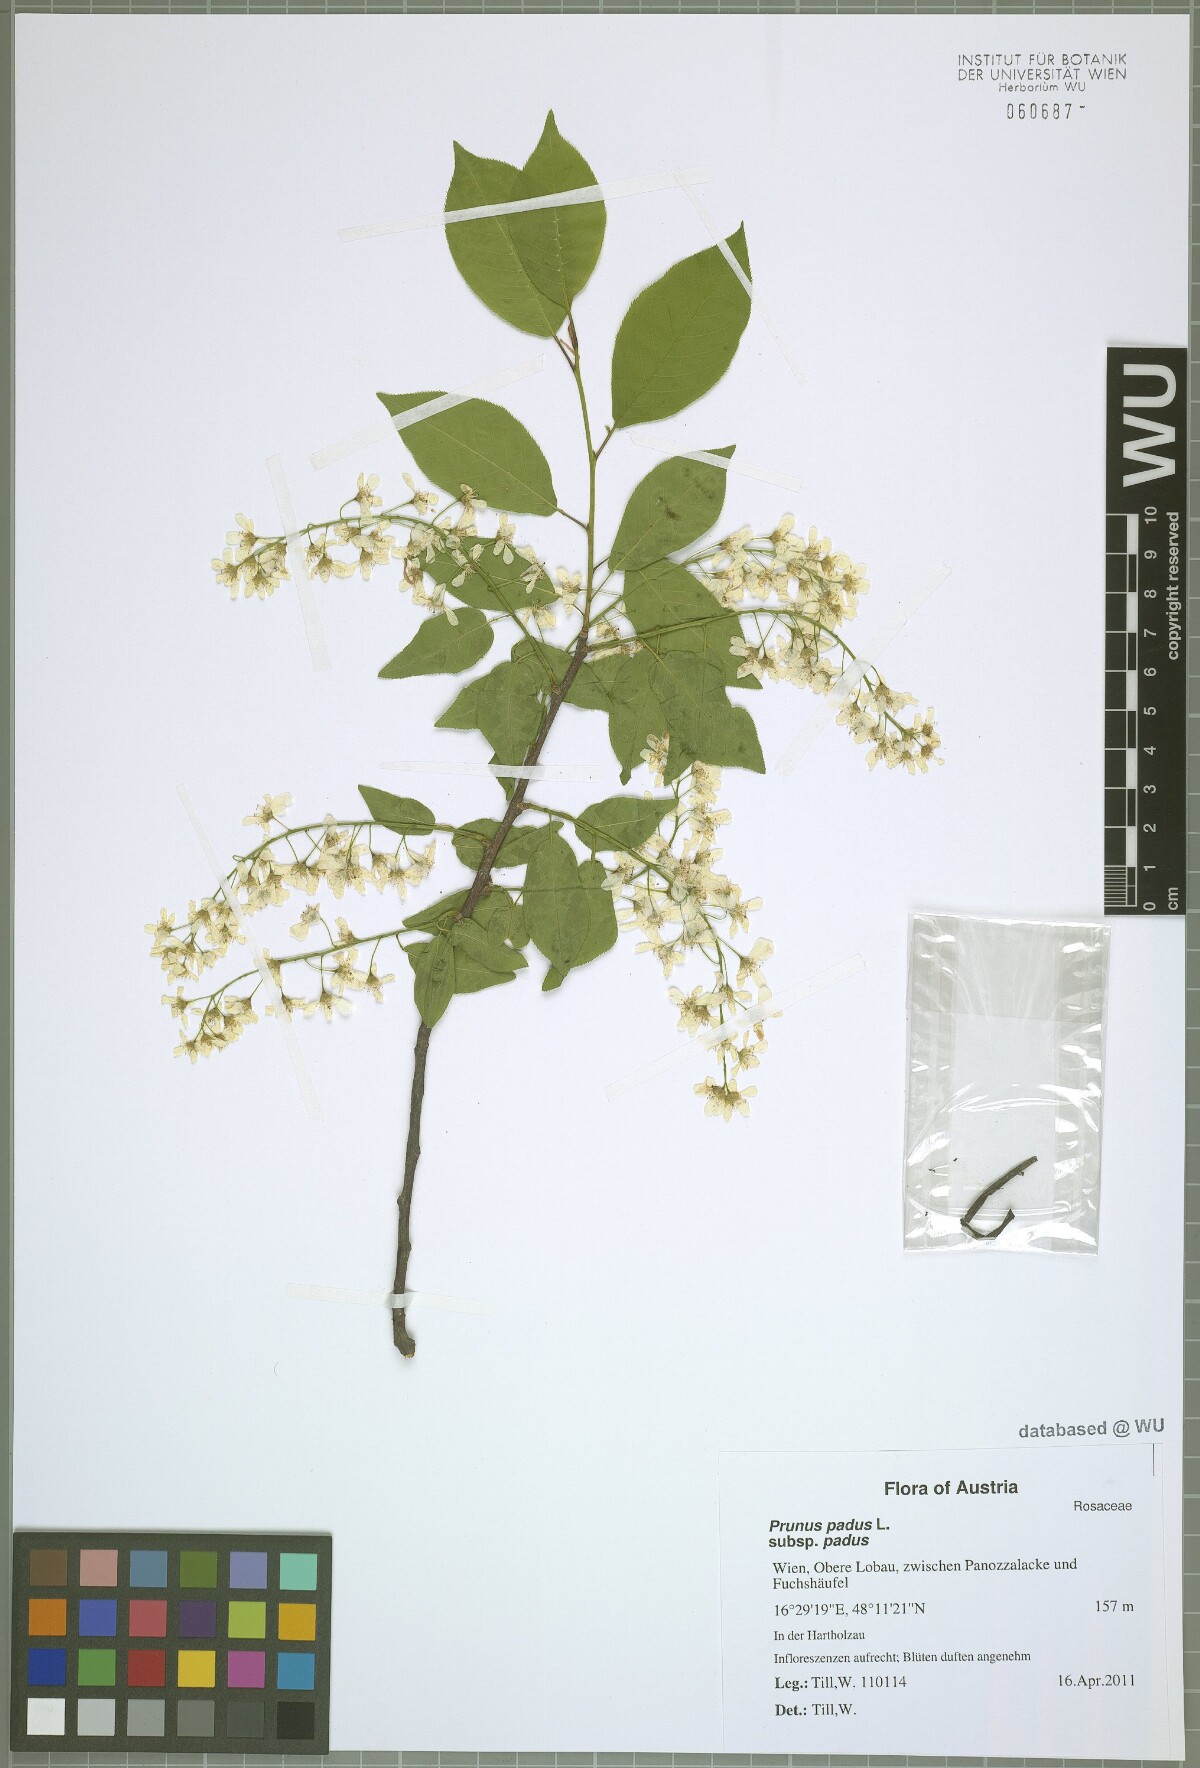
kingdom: Plantae
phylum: Tracheophyta
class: Magnoliopsida
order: Rosales
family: Rosaceae
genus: Prunus
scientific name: Prunus padus
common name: Bird cherry
